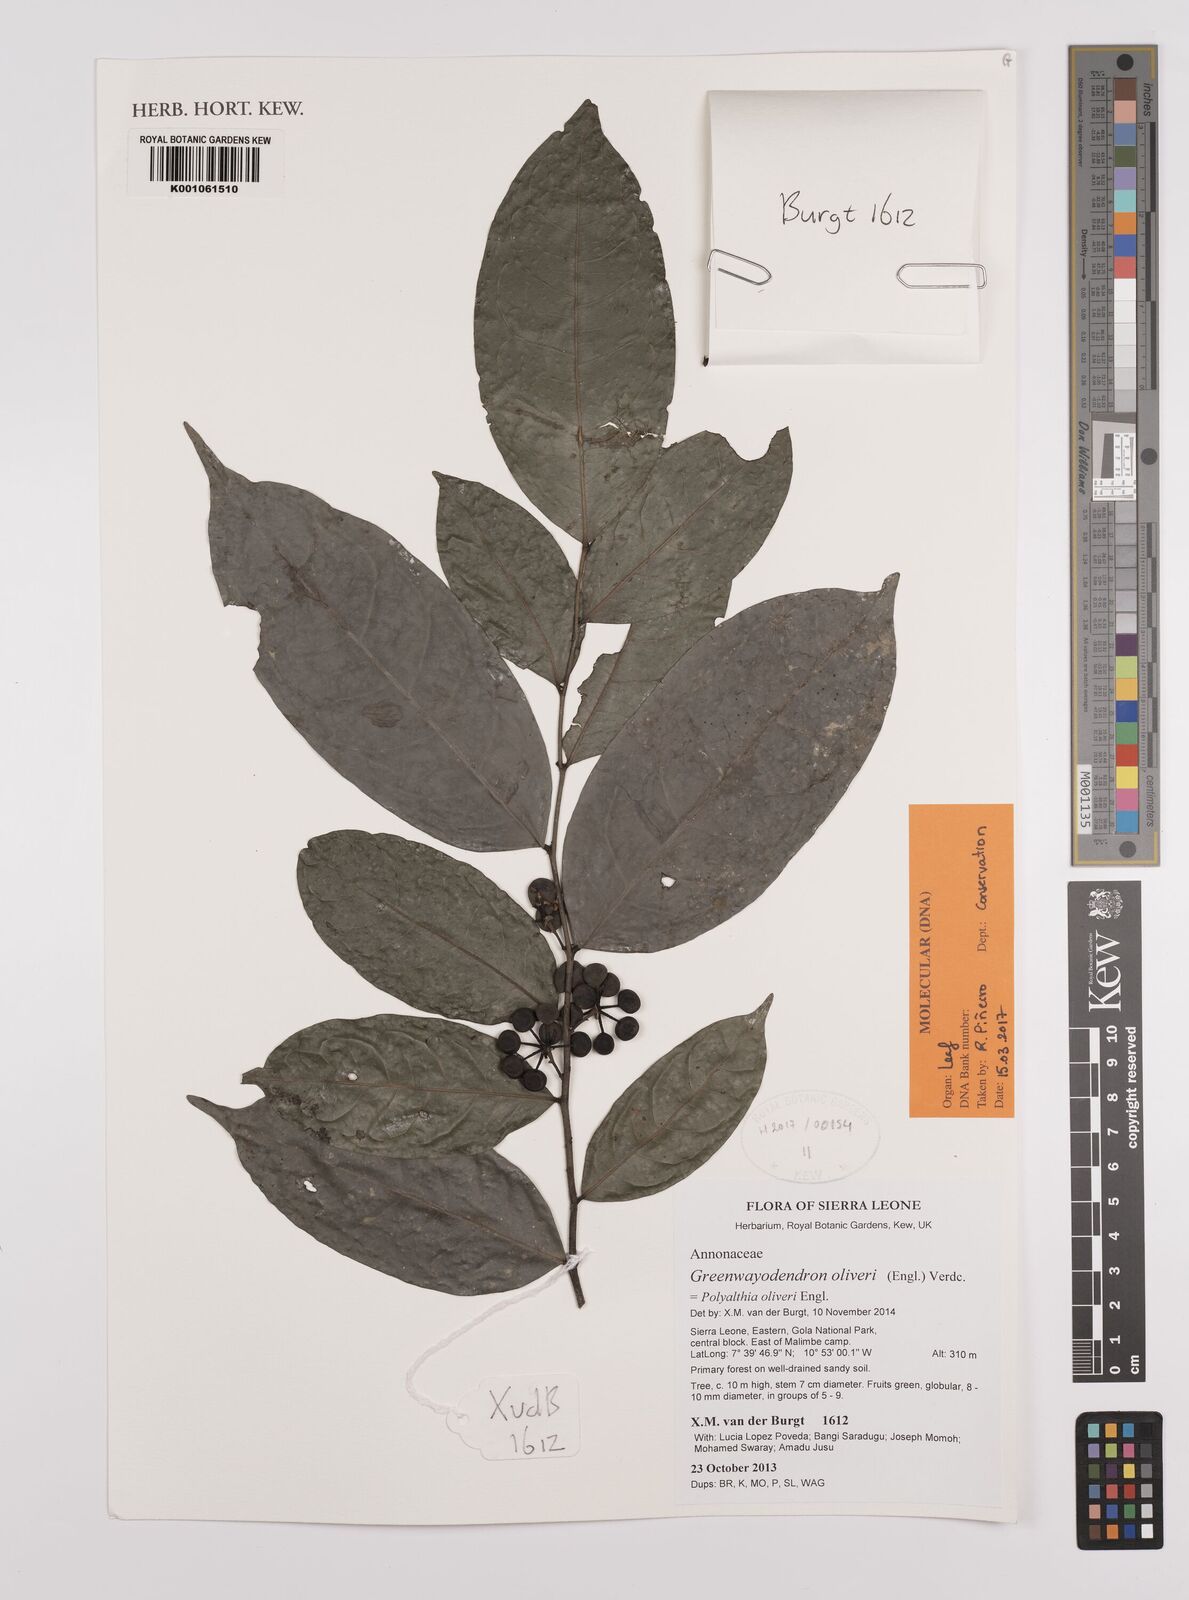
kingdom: Plantae
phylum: Tracheophyta
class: Magnoliopsida
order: Magnoliales
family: Annonaceae
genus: Greenwayodendron
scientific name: Greenwayodendron oliveri
